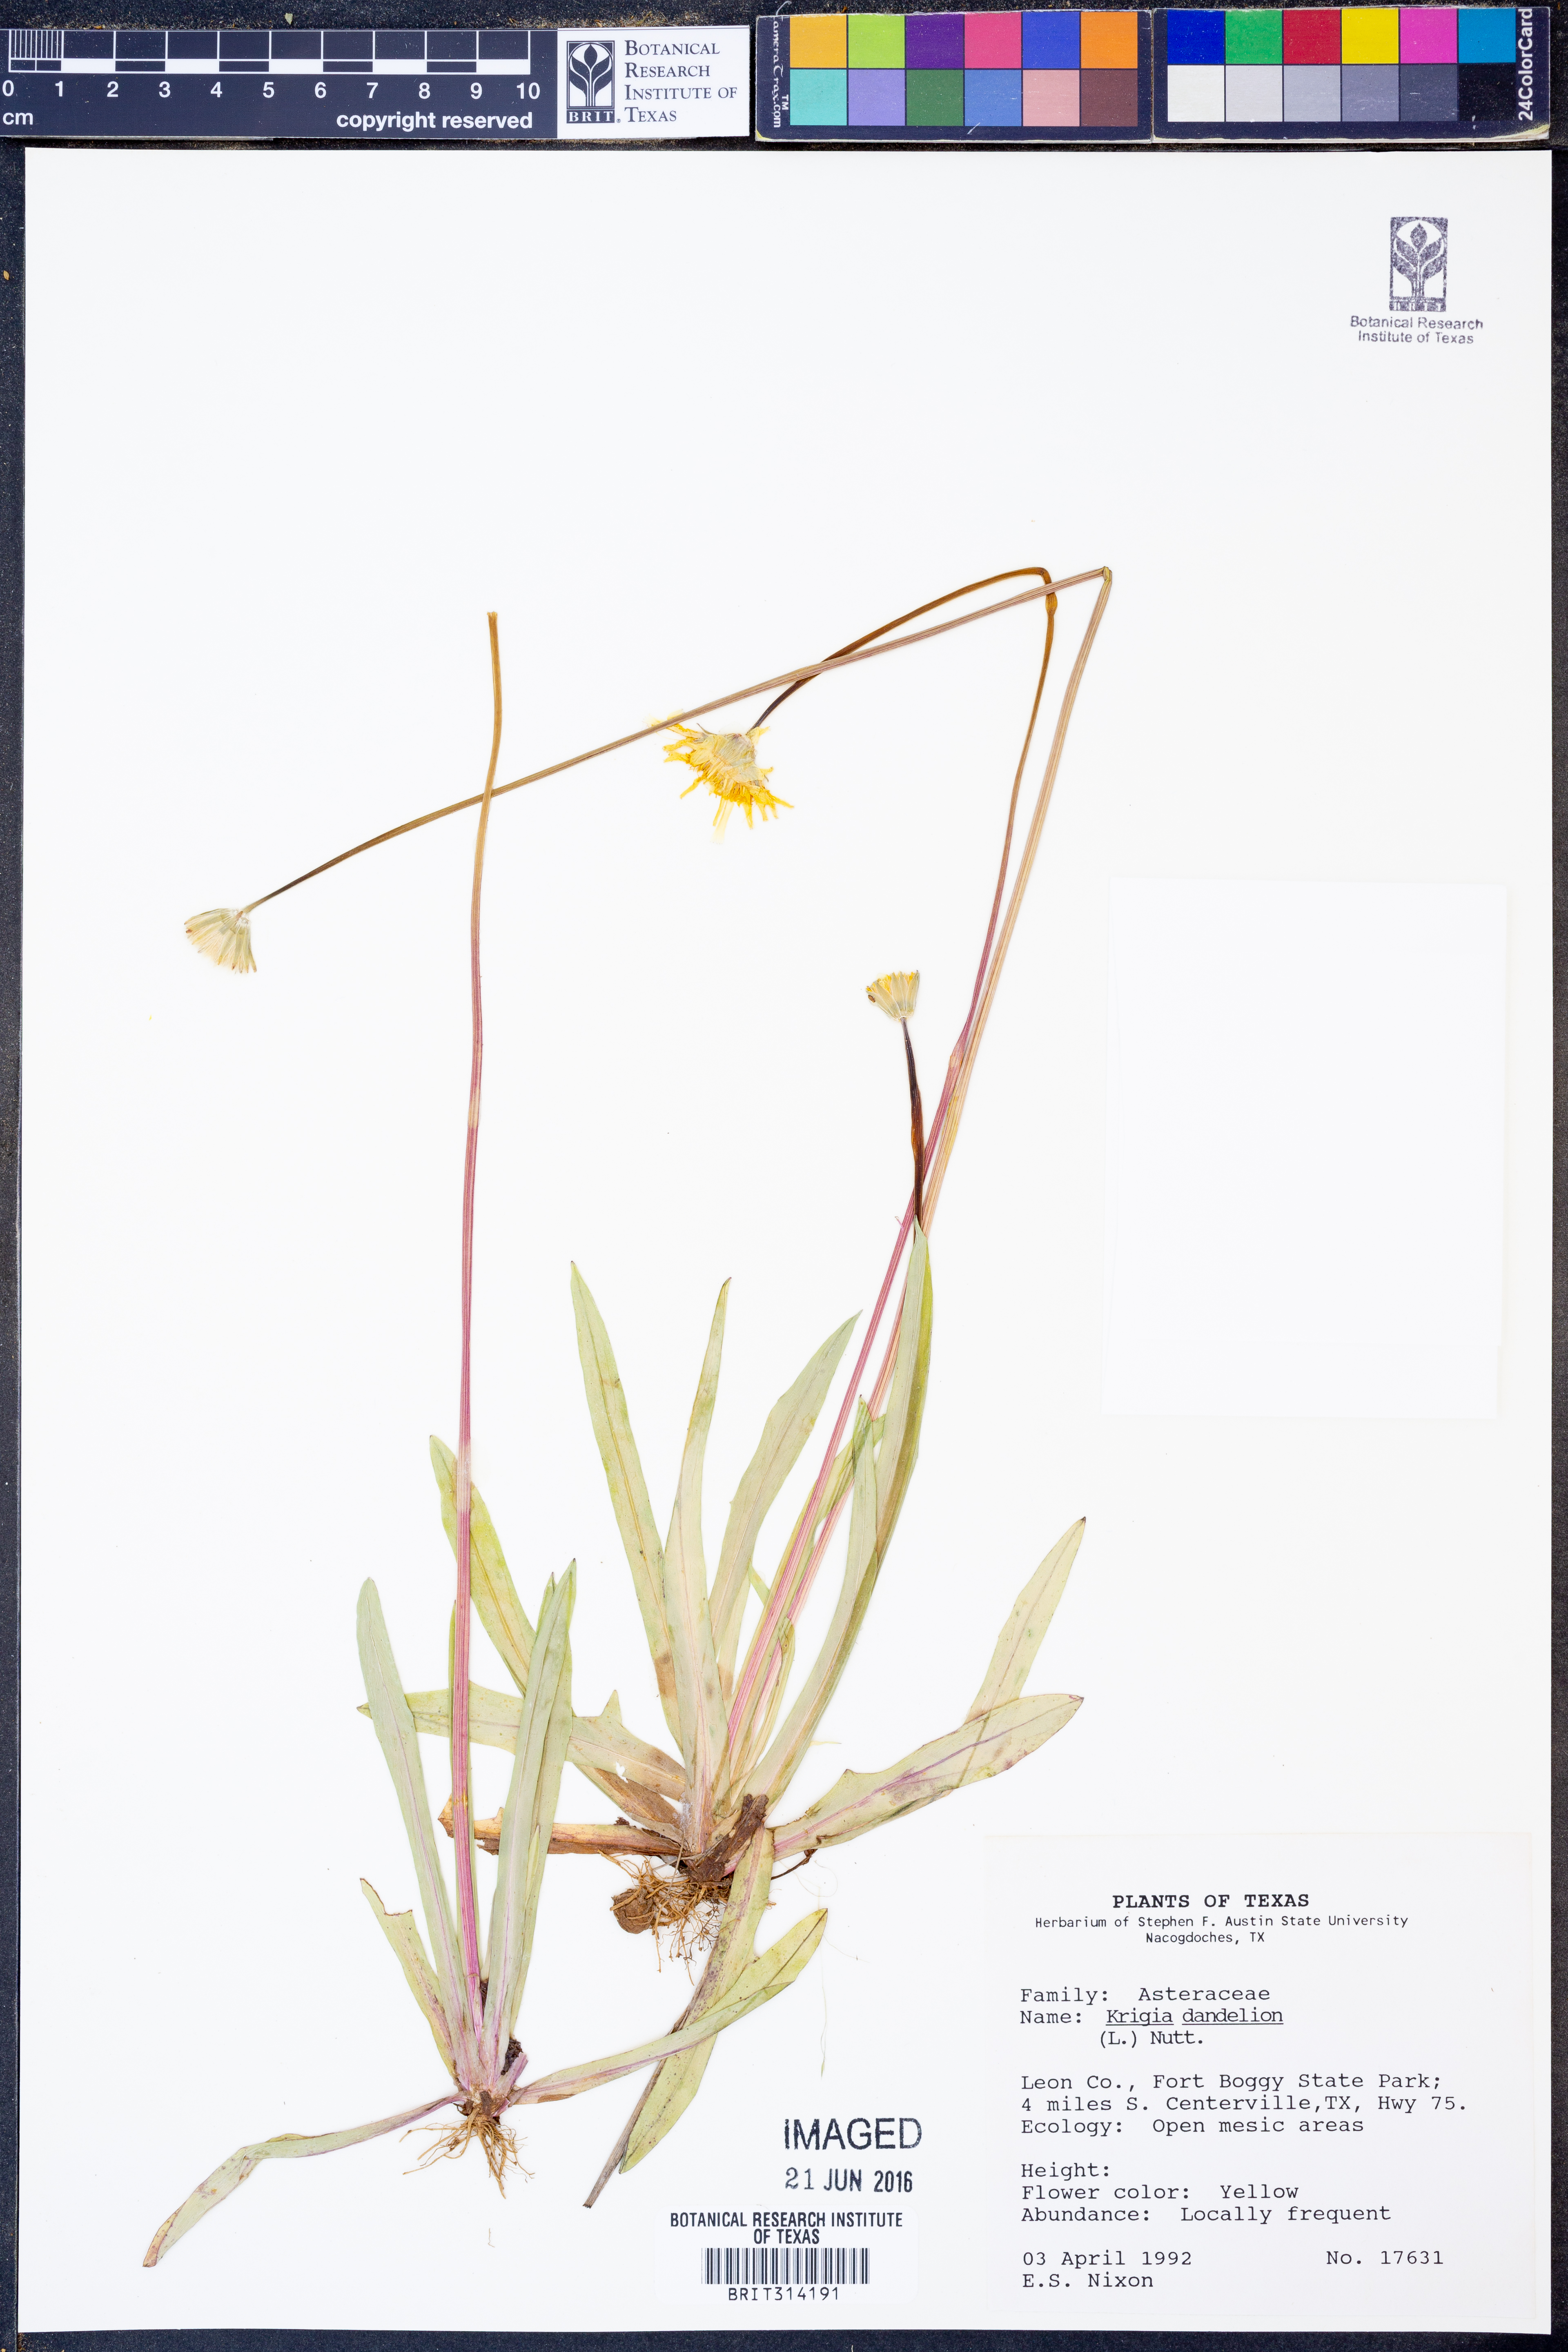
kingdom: Plantae
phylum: Tracheophyta
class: Magnoliopsida
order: Asterales
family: Asteraceae
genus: Krigia
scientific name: Krigia dandelion
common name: Colonial dwarf-dandelion
